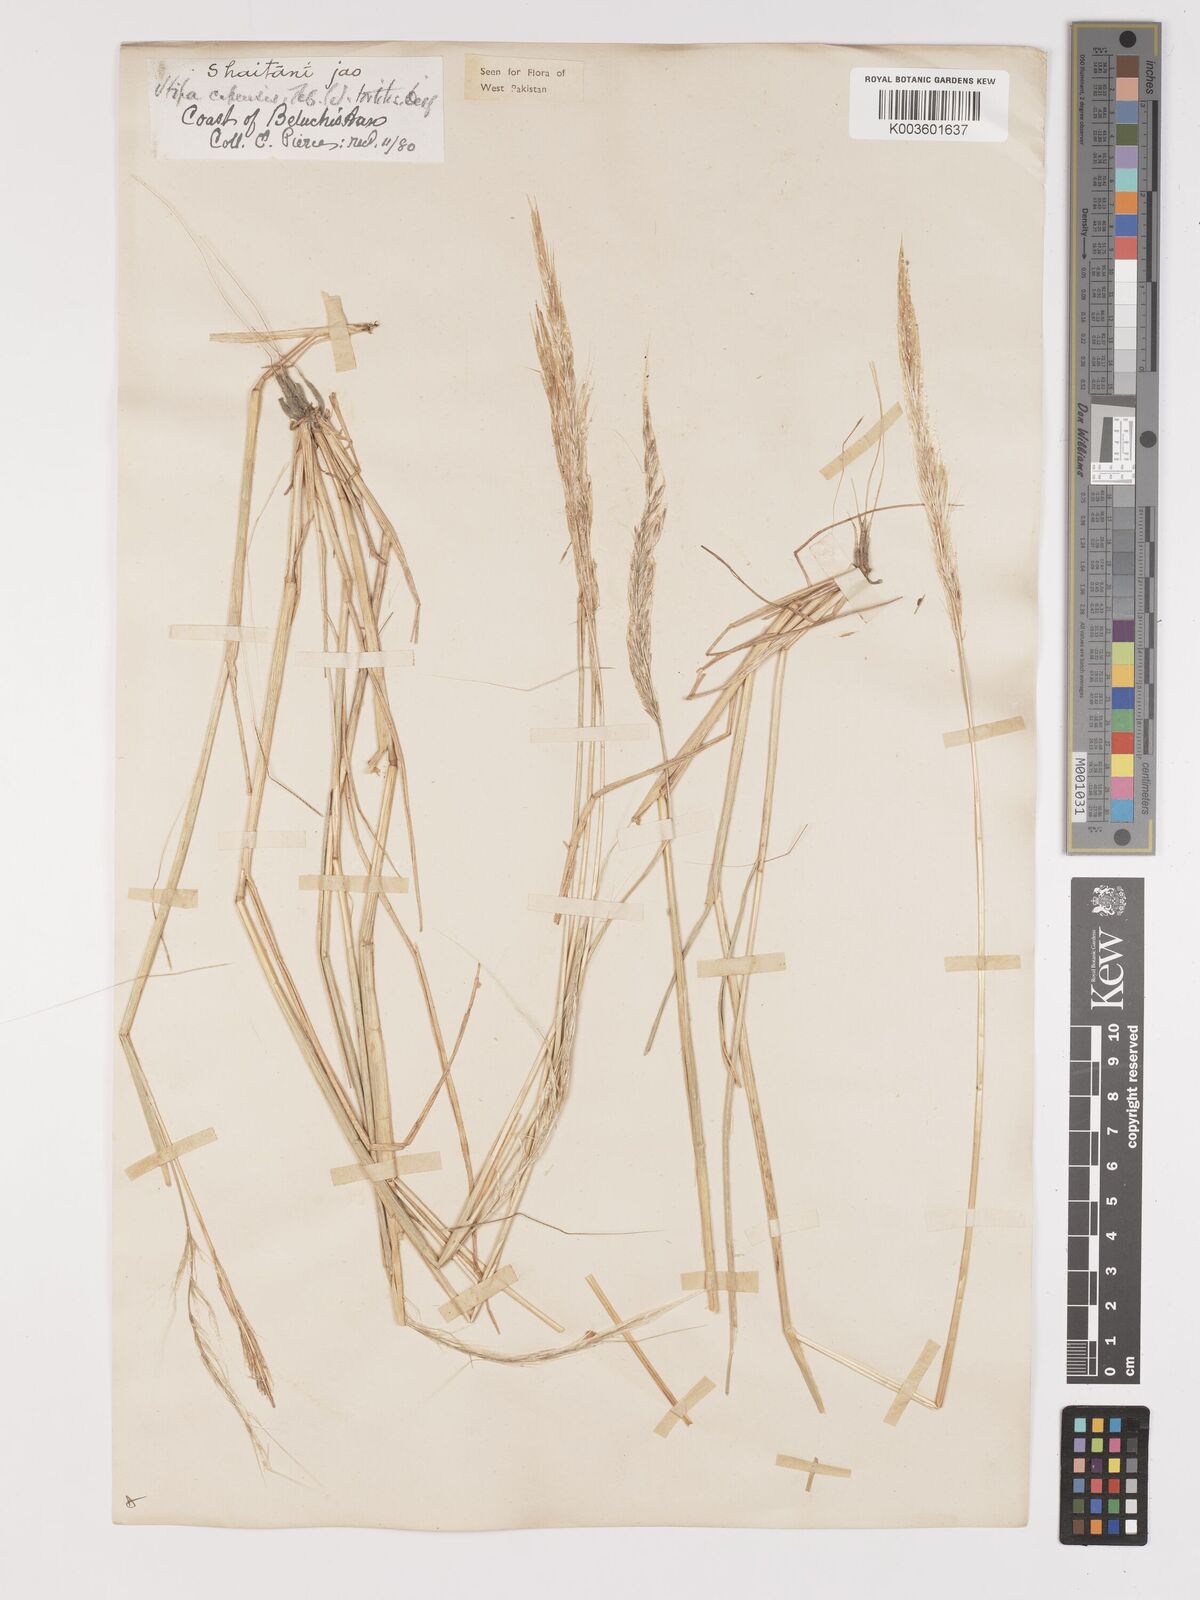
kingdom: Plantae
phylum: Tracheophyta
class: Liliopsida
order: Poales
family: Poaceae
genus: Stipellula
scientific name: Stipellula capensis
